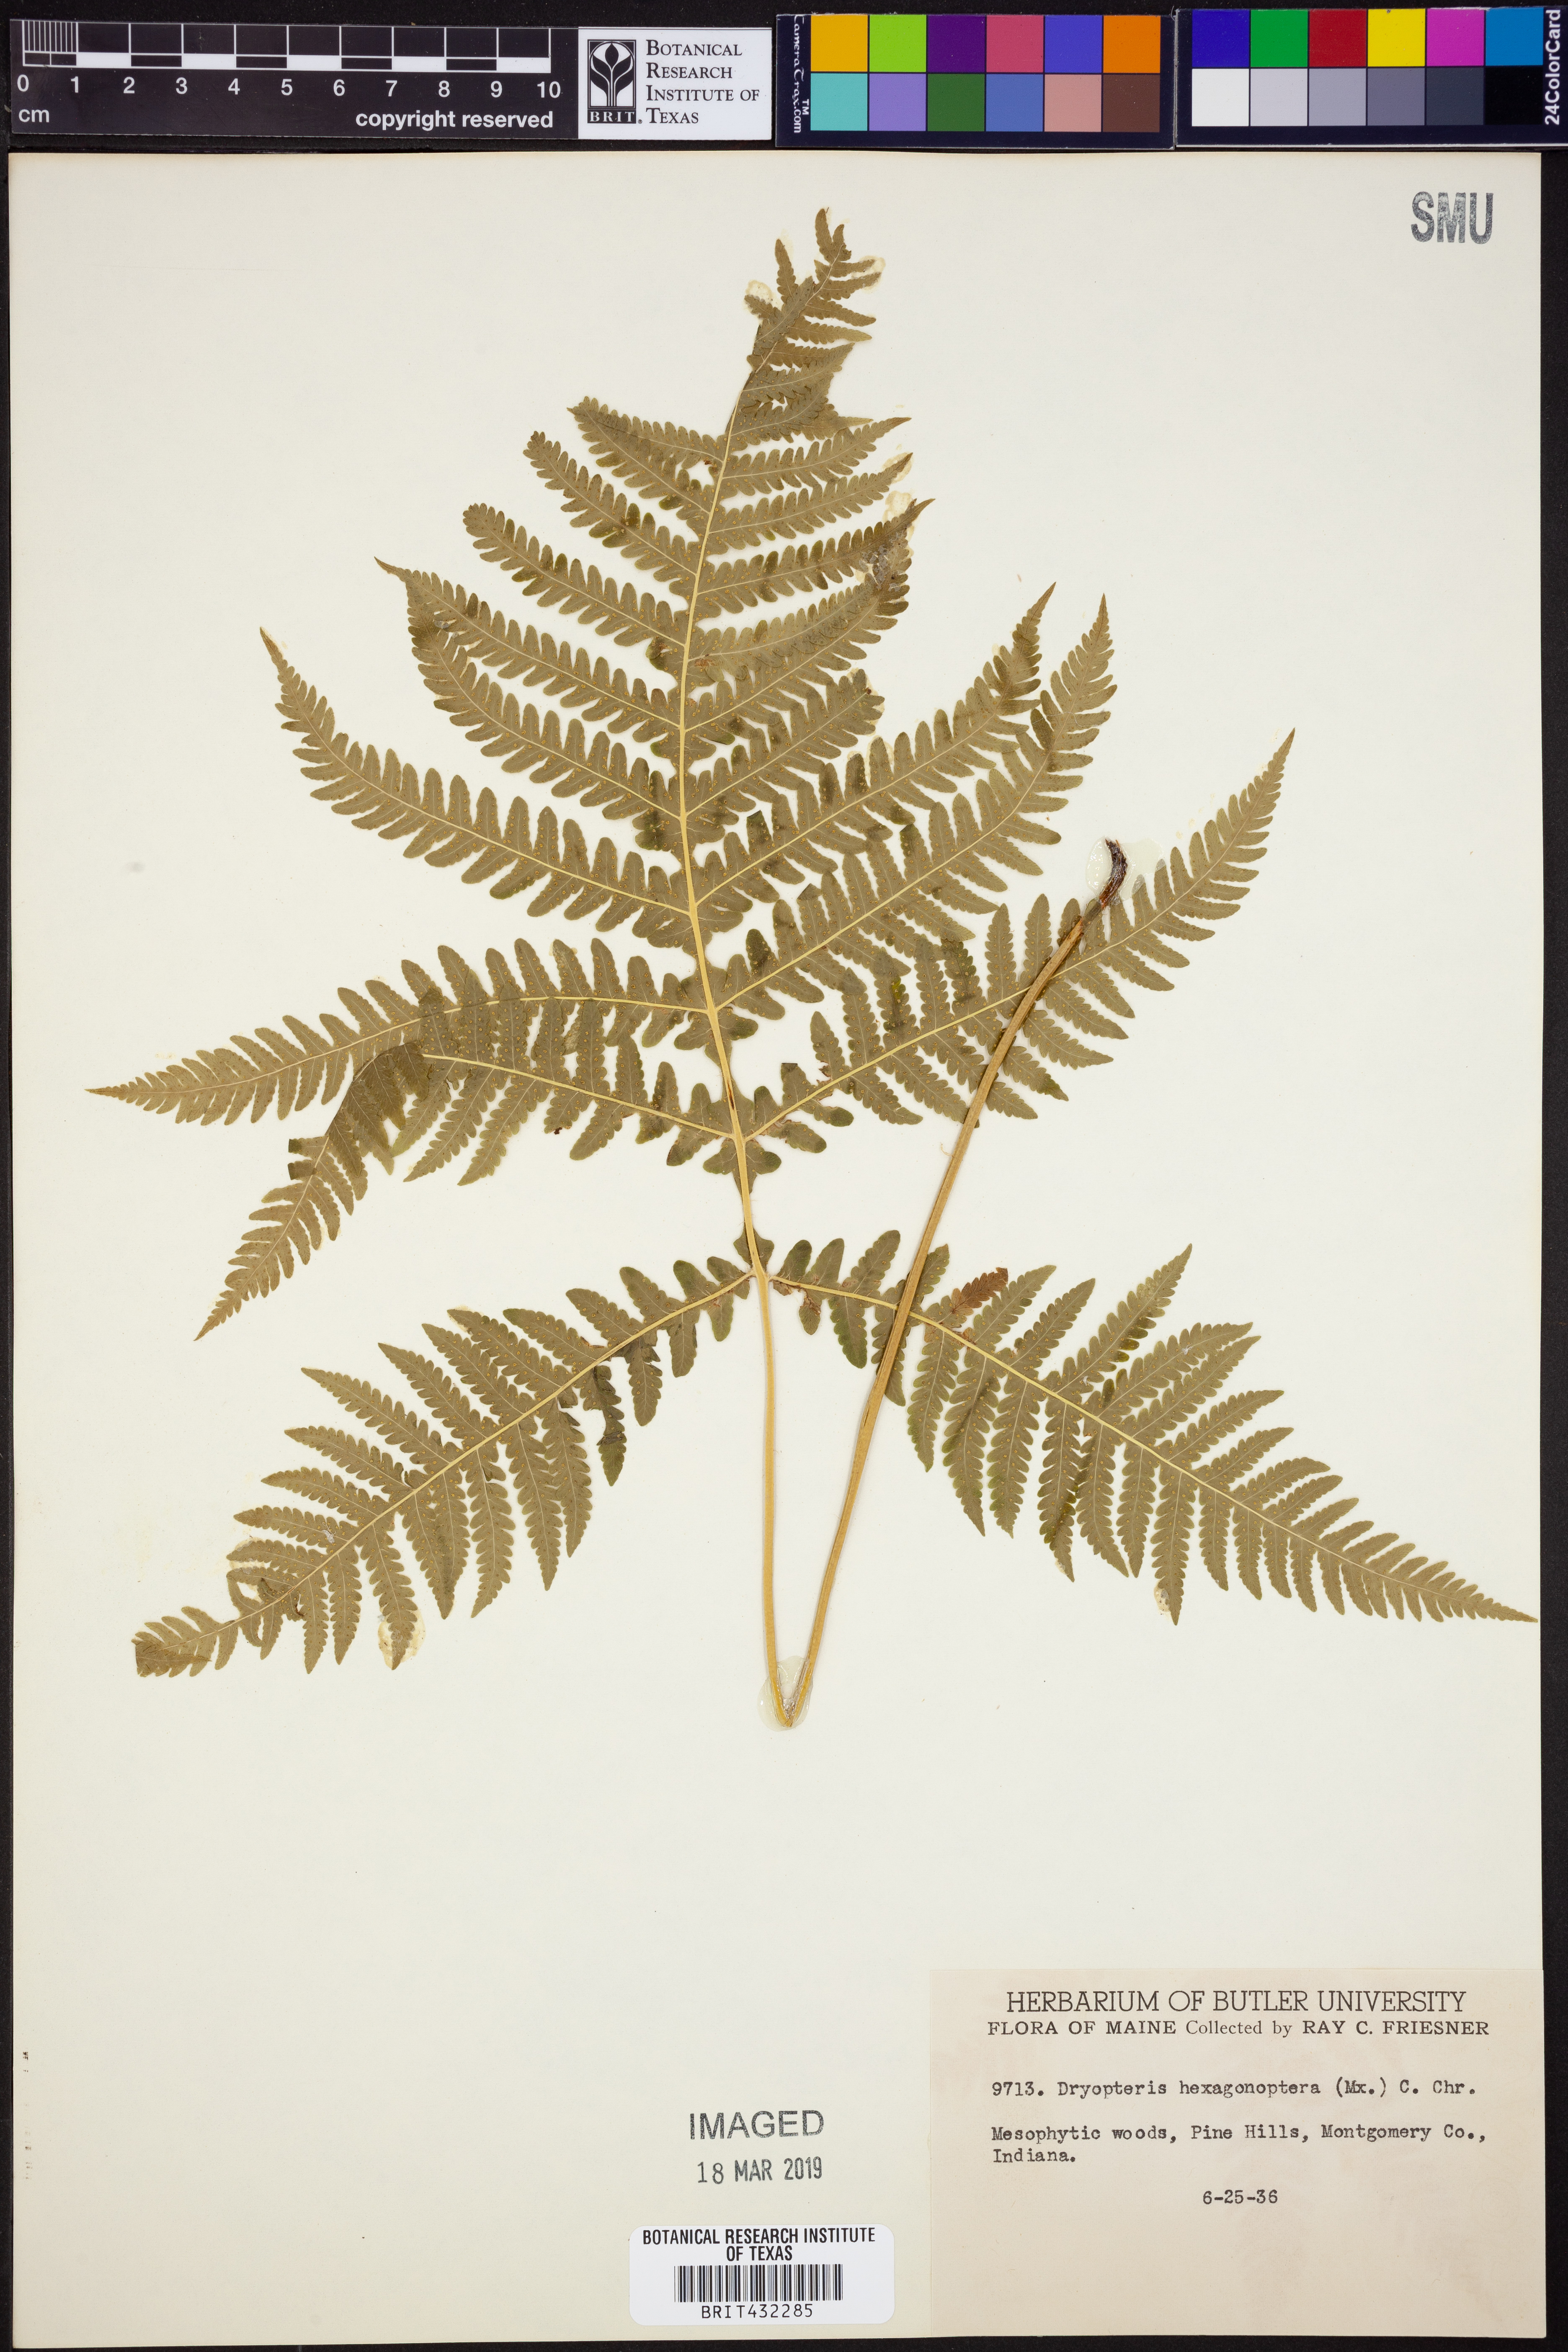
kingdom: Plantae
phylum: Tracheophyta
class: Polypodiopsida
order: Polypodiales
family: Dryopteridaceae
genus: Dryopteris
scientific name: Dryopteris hexagonaptera
